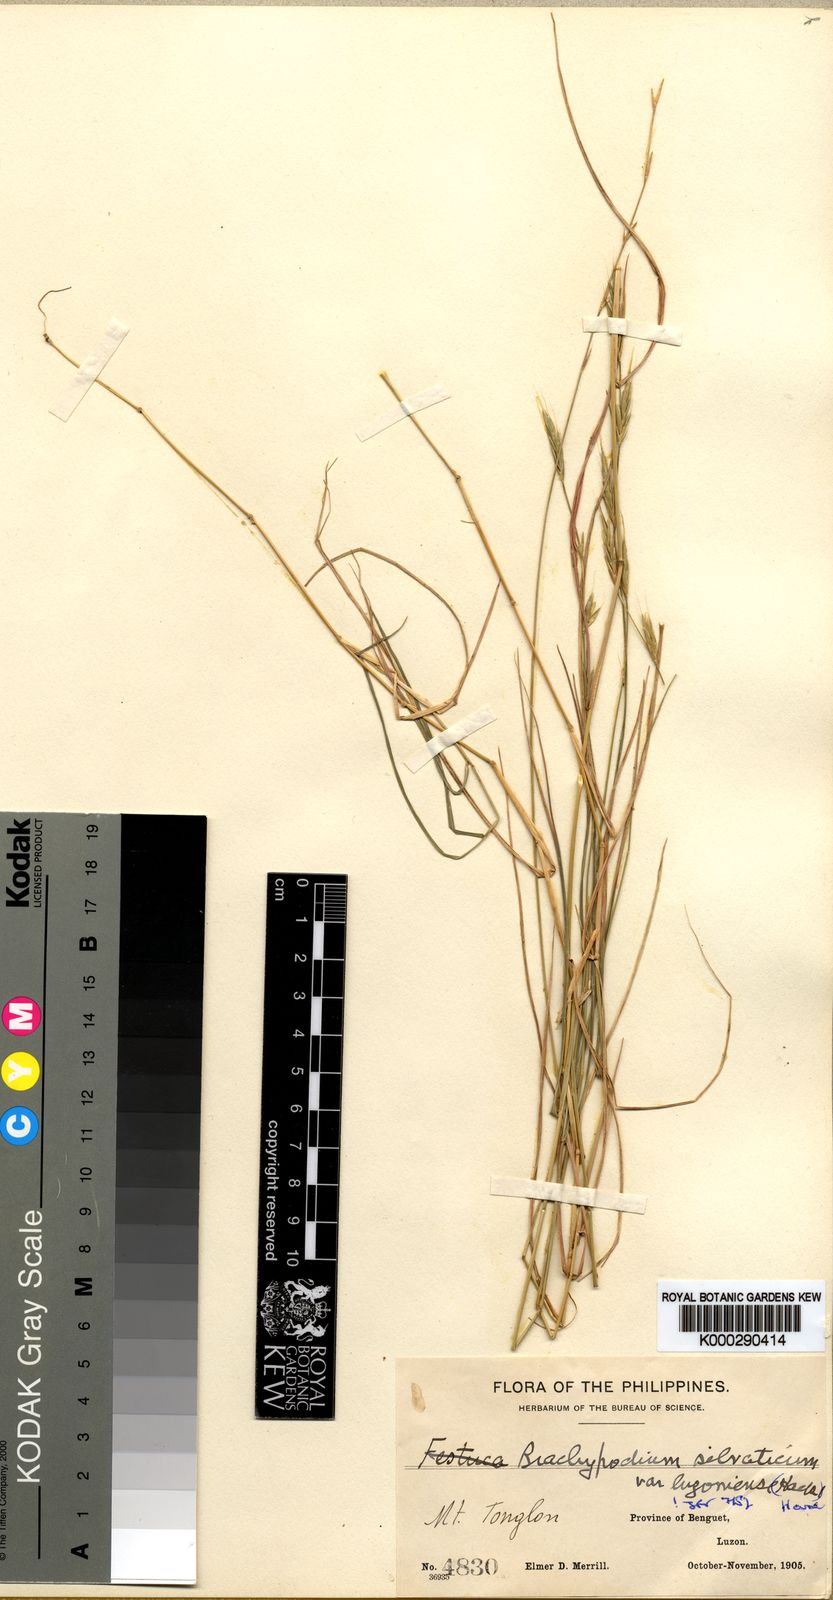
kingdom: Plantae
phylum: Tracheophyta
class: Liliopsida
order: Poales
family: Poaceae
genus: Brachypodium
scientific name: Brachypodium sylvaticum
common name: False-brome
